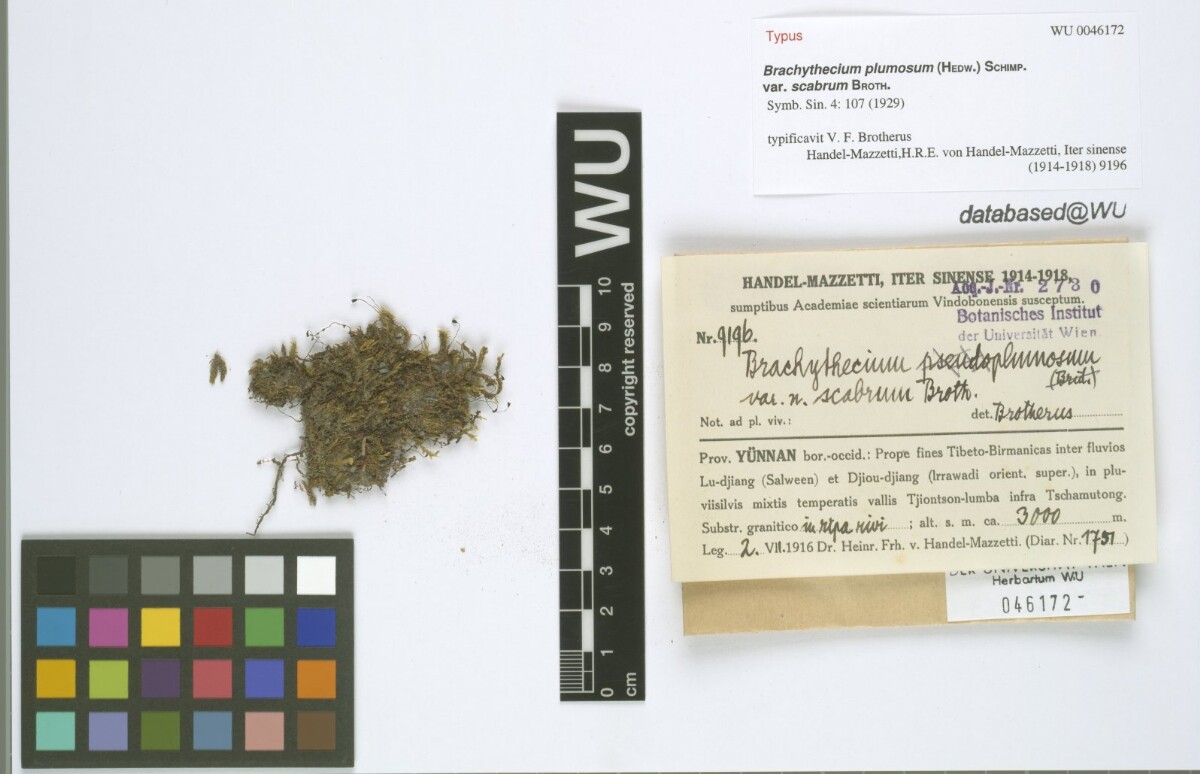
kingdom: Plantae
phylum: Bryophyta
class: Bryopsida
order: Hypnales
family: Brachytheciaceae
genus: Sciuro-hypnum
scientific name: Sciuro-hypnum plumosum
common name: Rusty feather-moss
